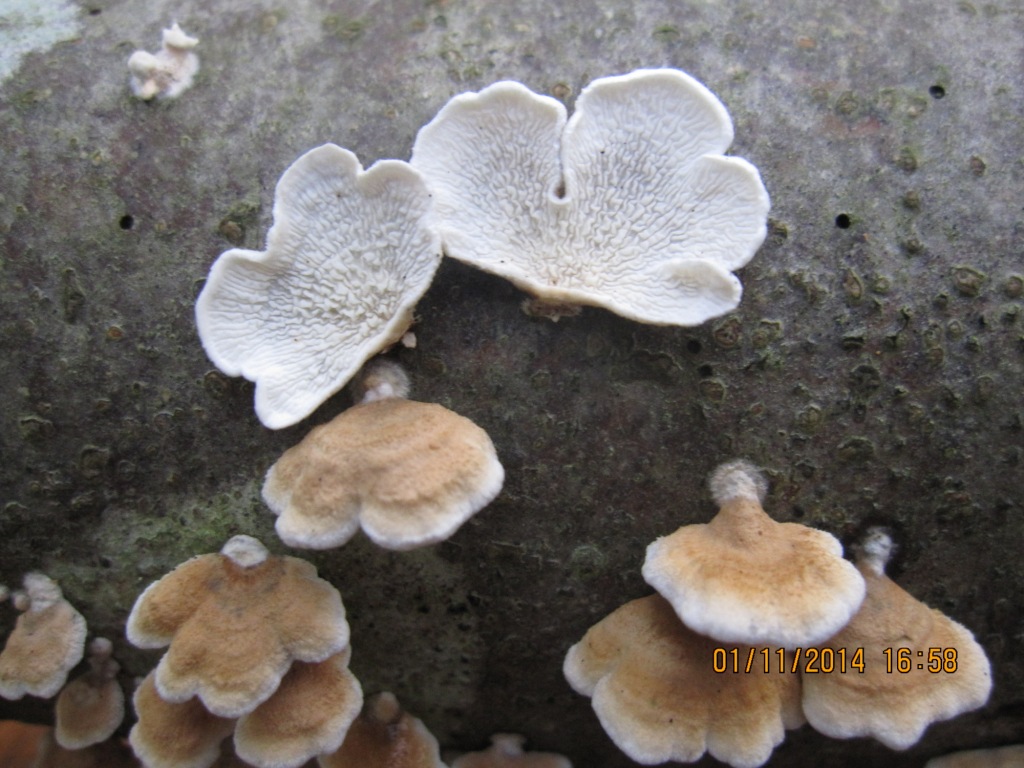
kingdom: Fungi
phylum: Basidiomycota
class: Agaricomycetes
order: Amylocorticiales
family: Amylocorticiaceae
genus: Plicaturopsis
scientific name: Plicaturopsis crispa
